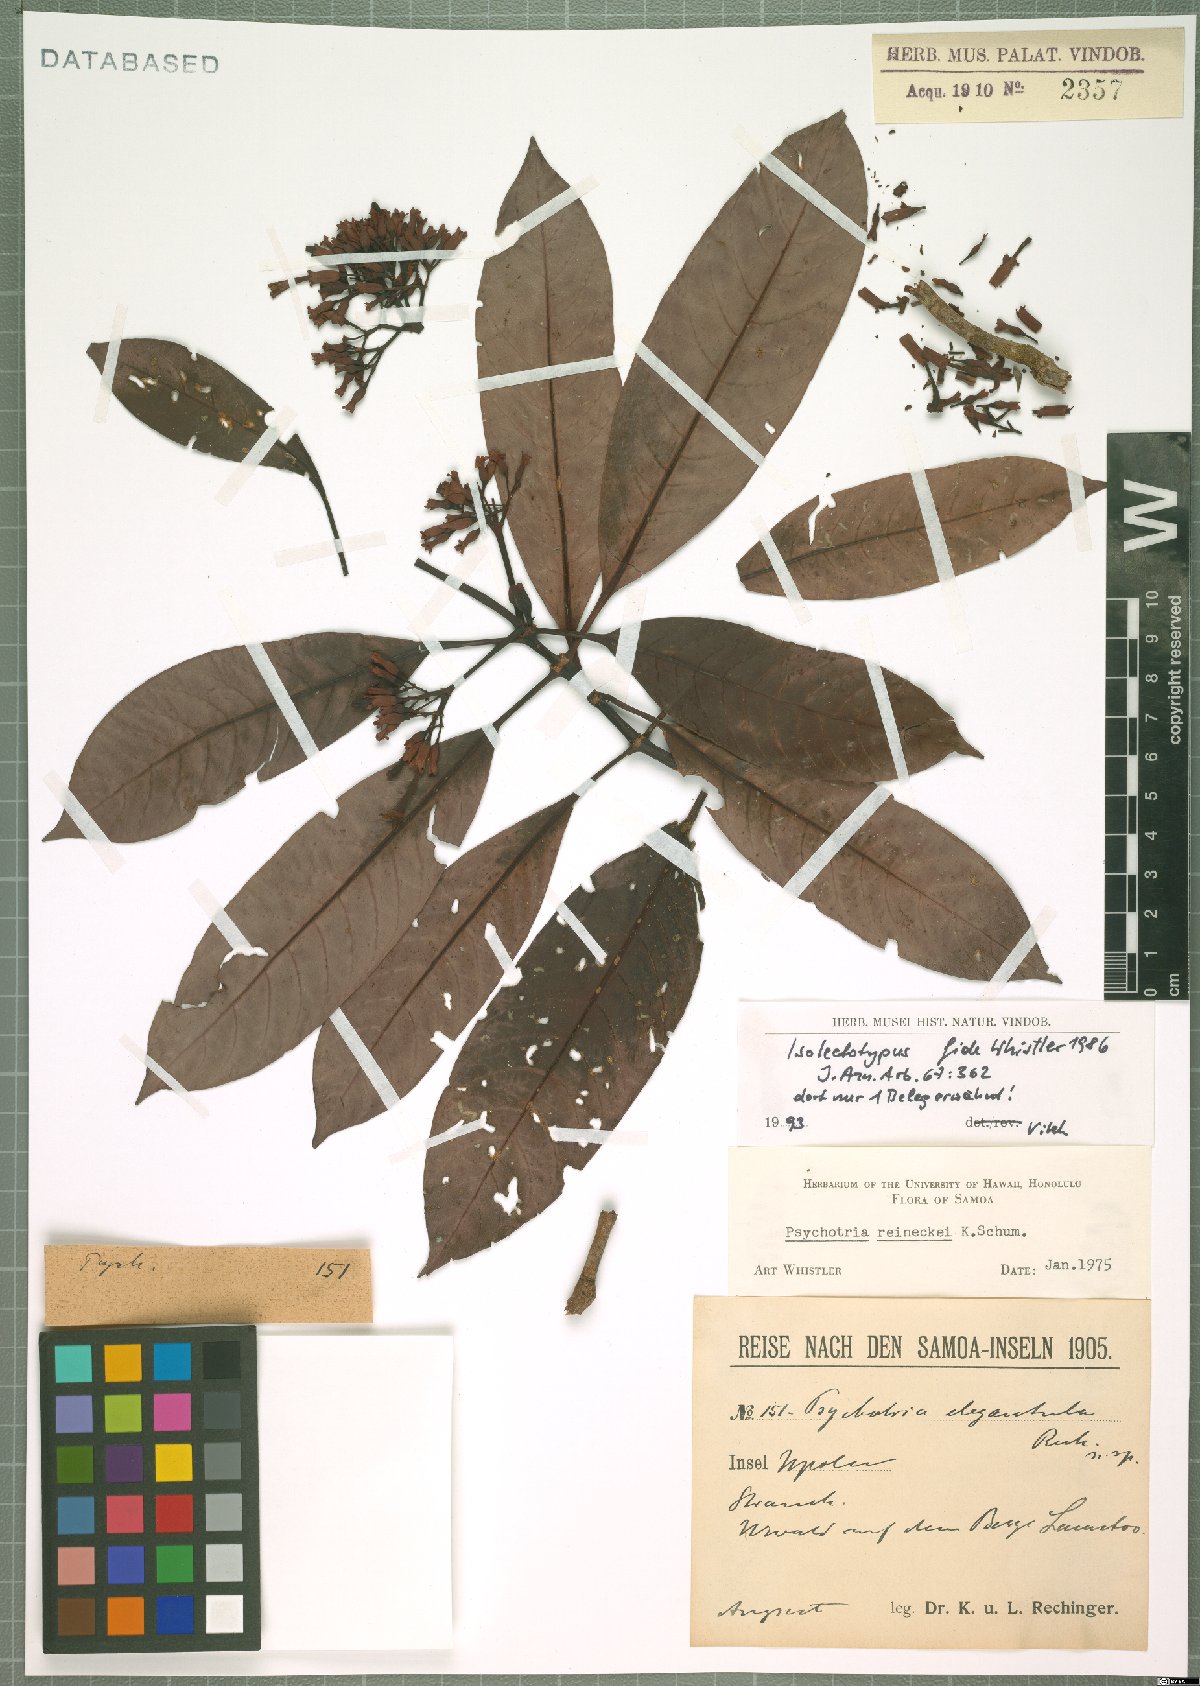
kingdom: Plantae
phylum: Tracheophyta
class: Magnoliopsida
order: Gentianales
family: Rubiaceae
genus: Psychotria
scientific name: Psychotria reineckei
